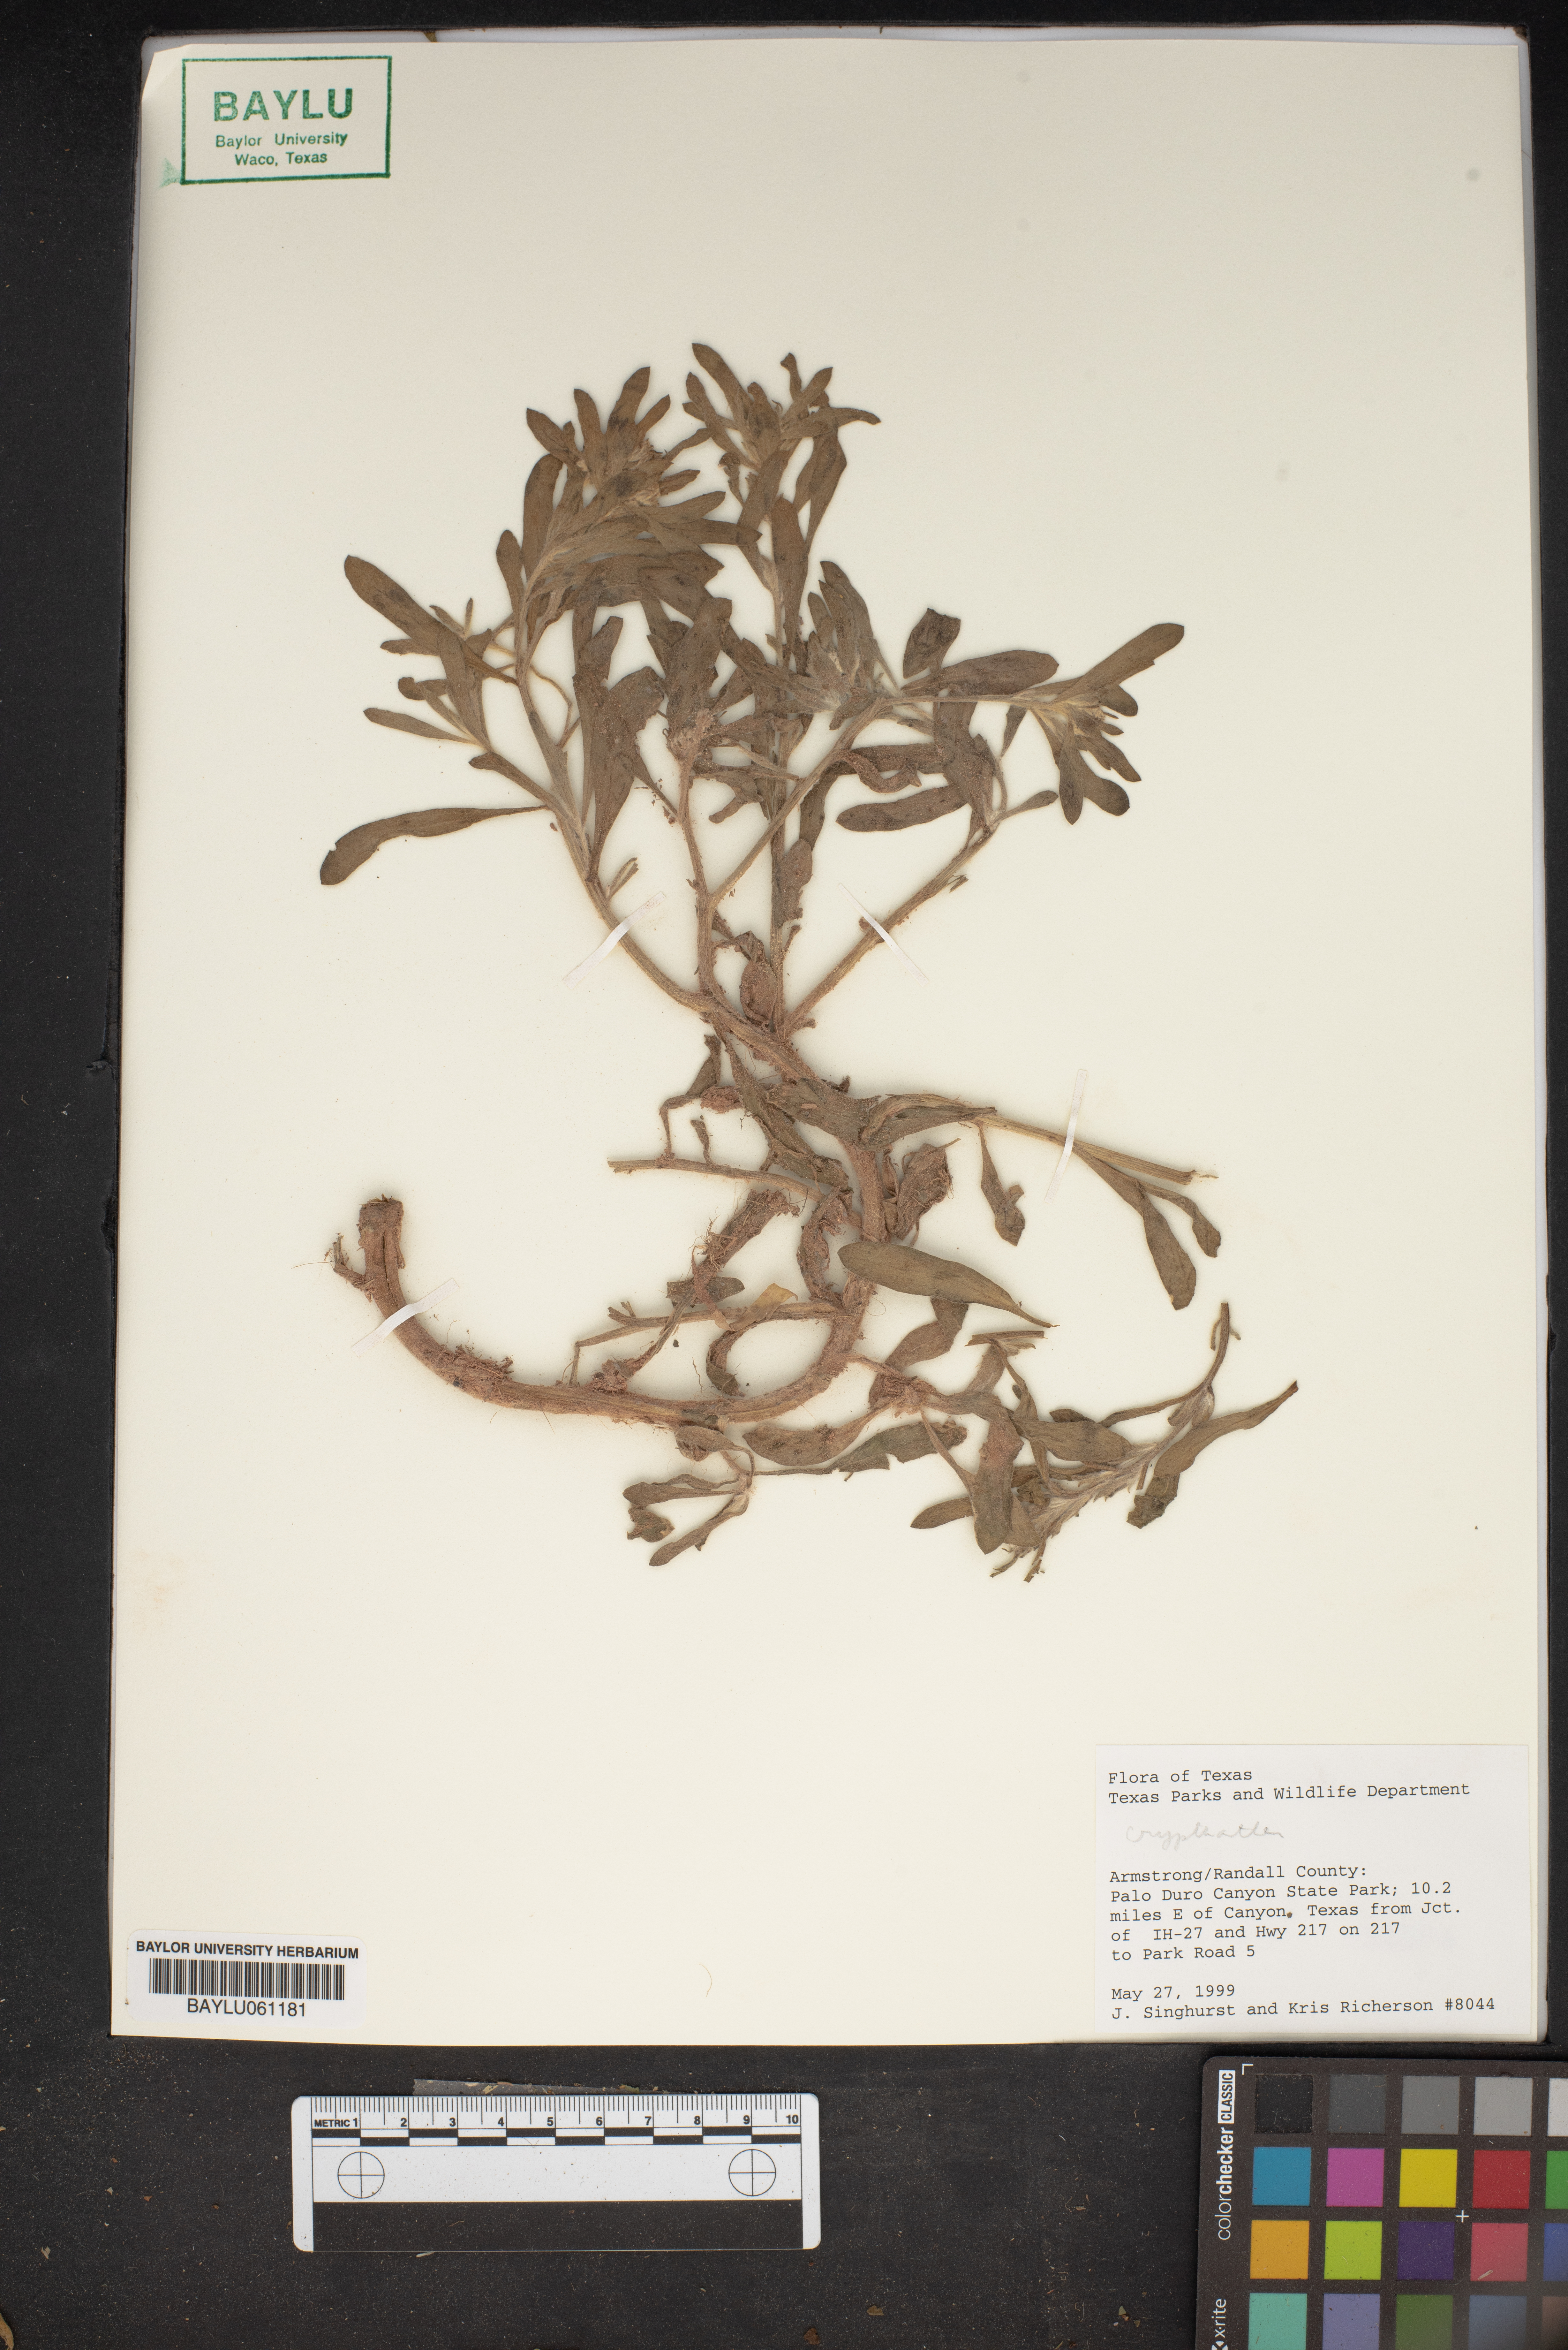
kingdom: Plantae
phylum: Tracheophyta
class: Magnoliopsida
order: Boraginales
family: Boraginaceae
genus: Cryptantha
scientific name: Cryptantha
